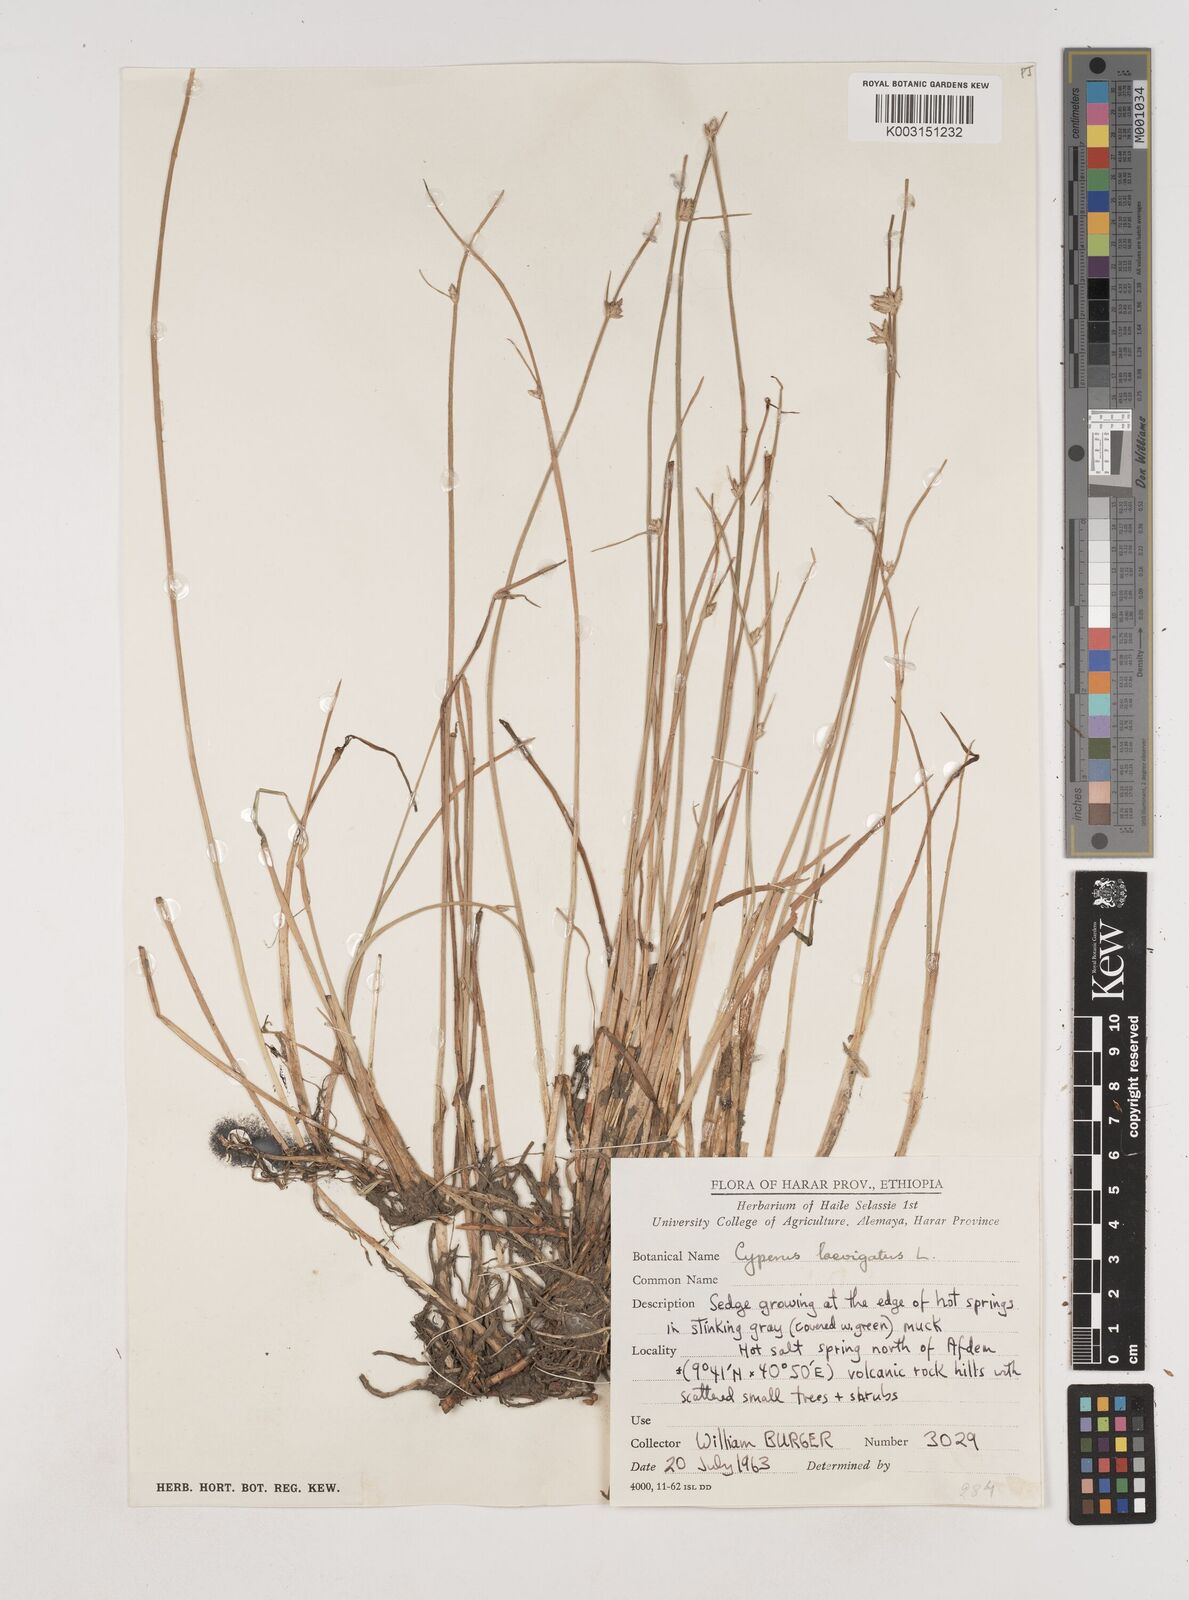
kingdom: Plantae
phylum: Tracheophyta
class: Liliopsida
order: Poales
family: Cyperaceae
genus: Cyperus
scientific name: Cyperus laevigatus
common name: Smooth flat sedge
